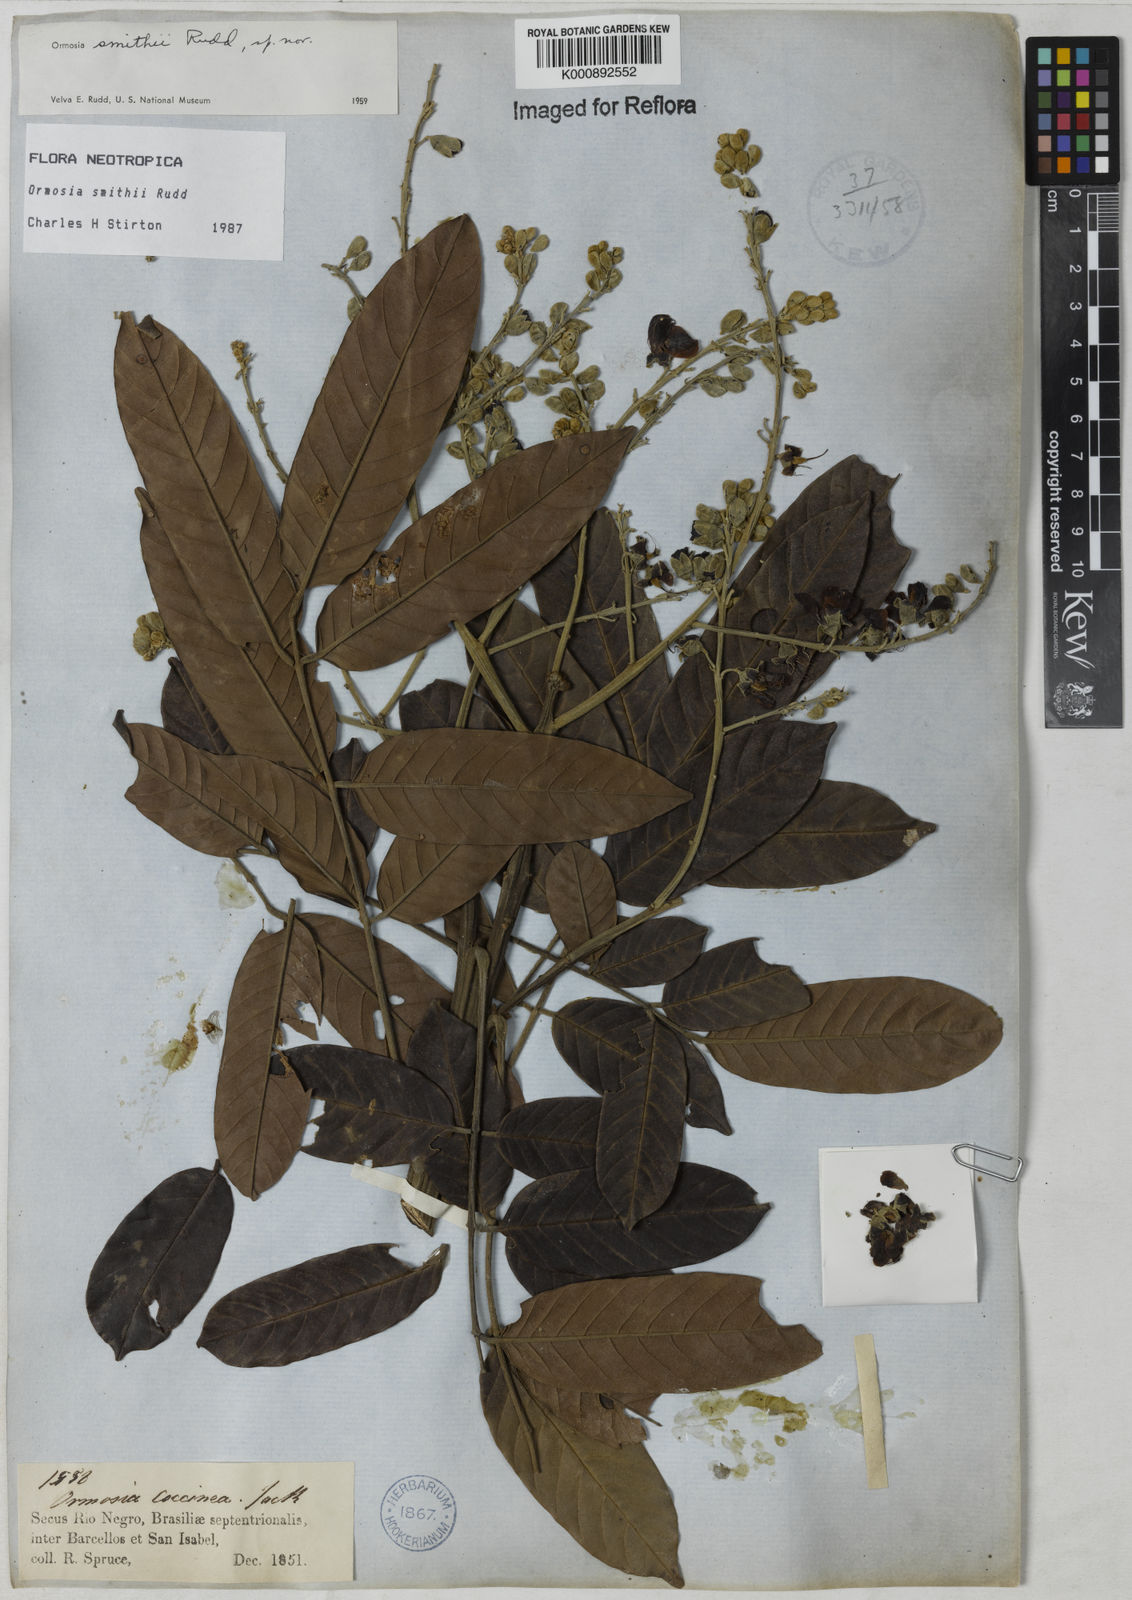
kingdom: Plantae
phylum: Tracheophyta
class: Magnoliopsida
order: Fabales
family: Fabaceae
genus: Ormosia
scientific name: Ormosia smithii
